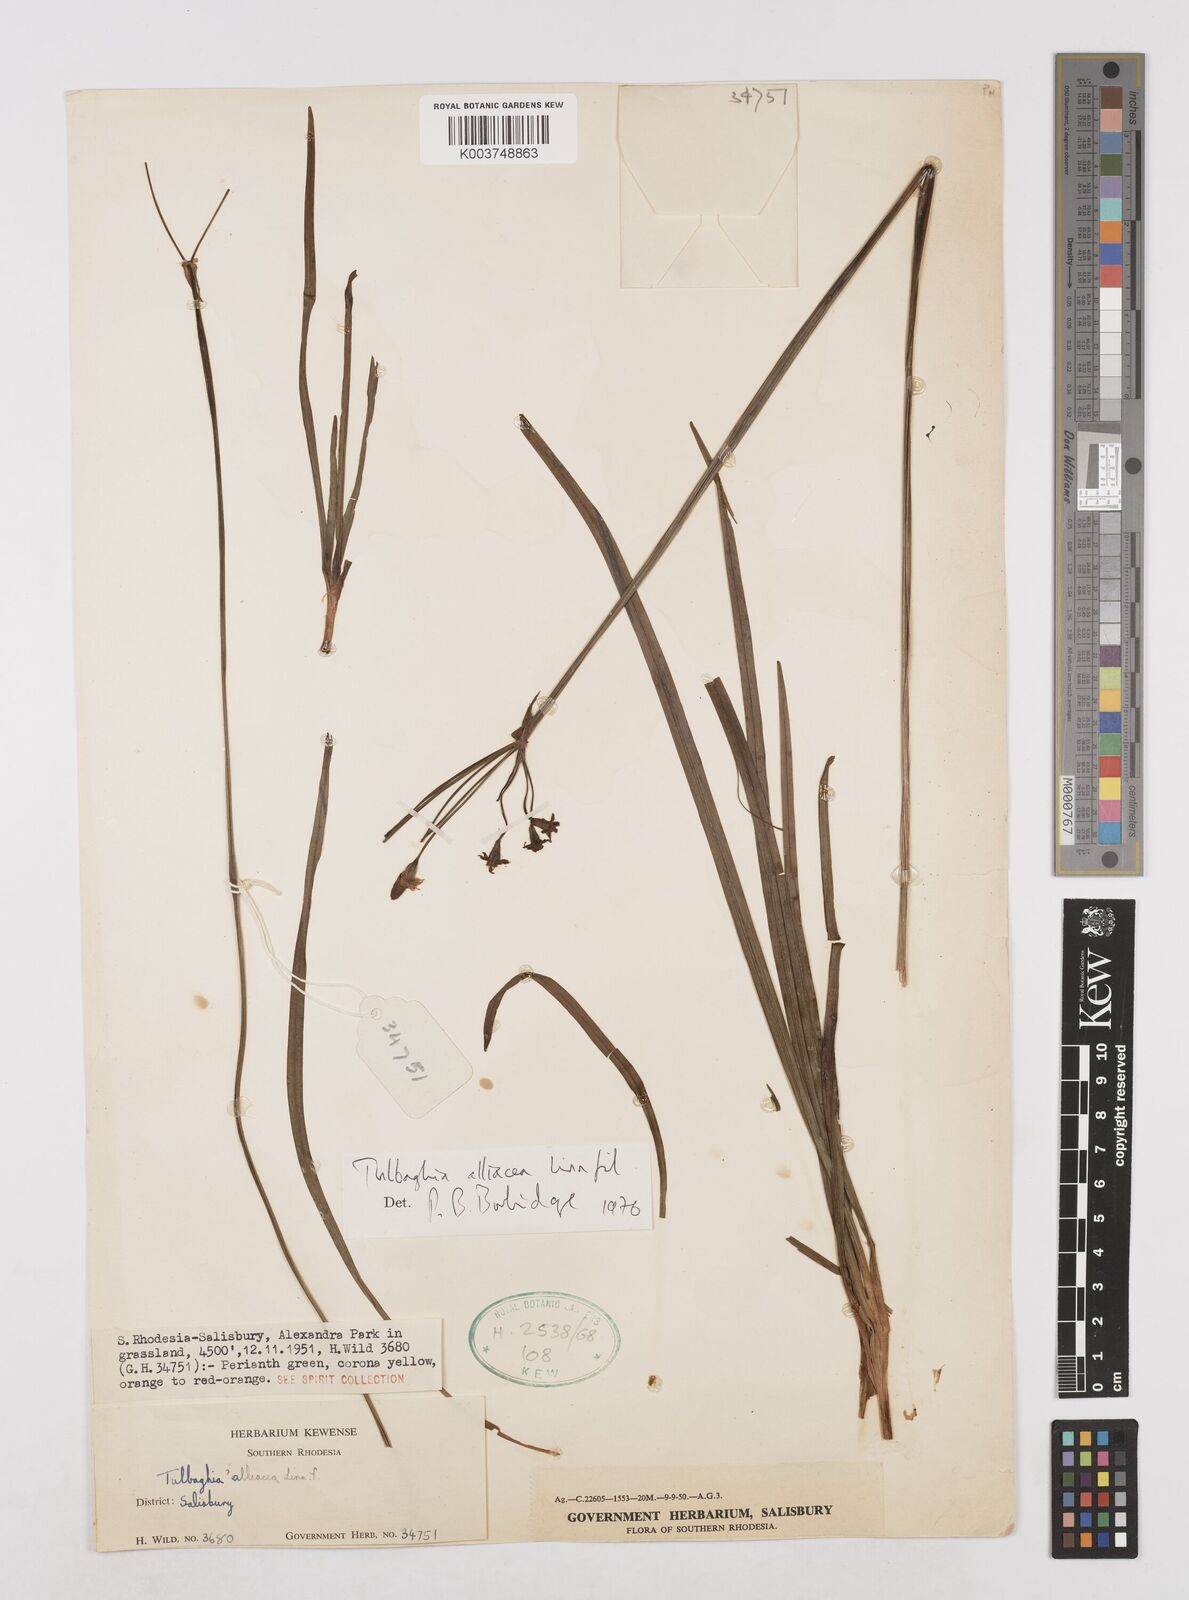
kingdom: Plantae
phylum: Tracheophyta
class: Liliopsida
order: Asparagales
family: Amaryllidaceae
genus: Tulbaghia
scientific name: Tulbaghia alliacea
